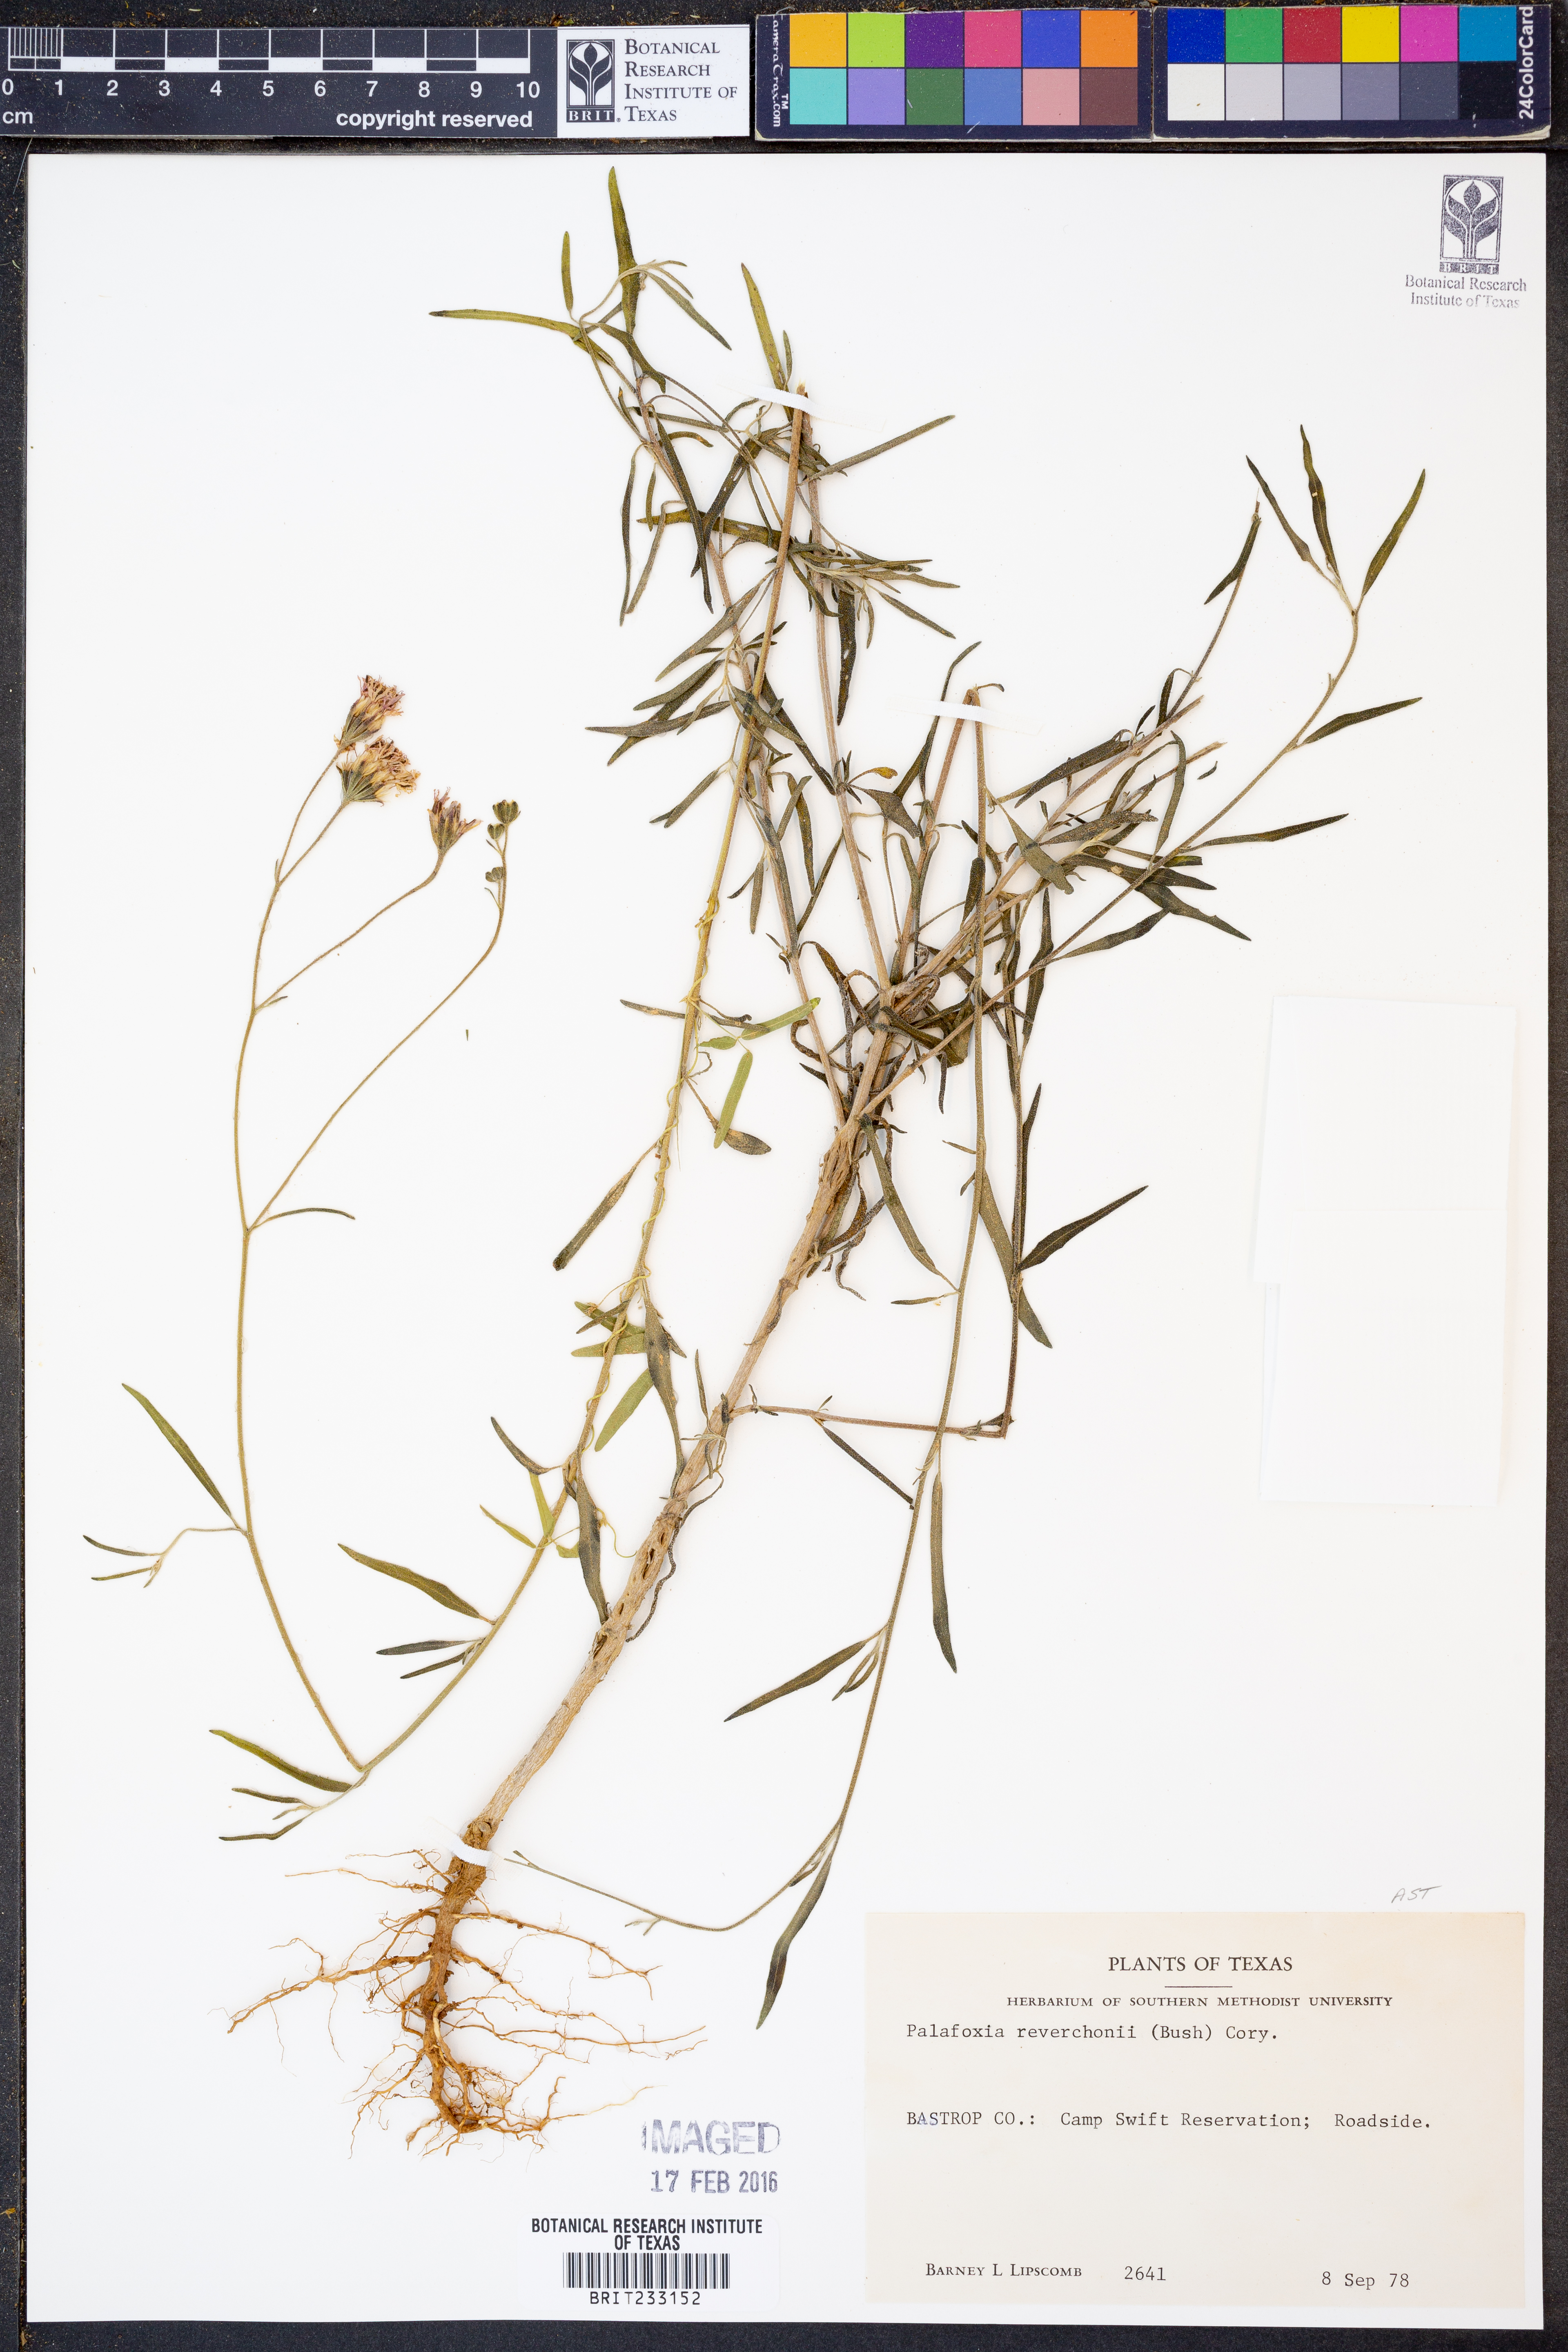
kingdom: Plantae
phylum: Tracheophyta
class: Magnoliopsida
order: Asterales
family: Asteraceae
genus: Palafoxia
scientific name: Palafoxia reverchonii
